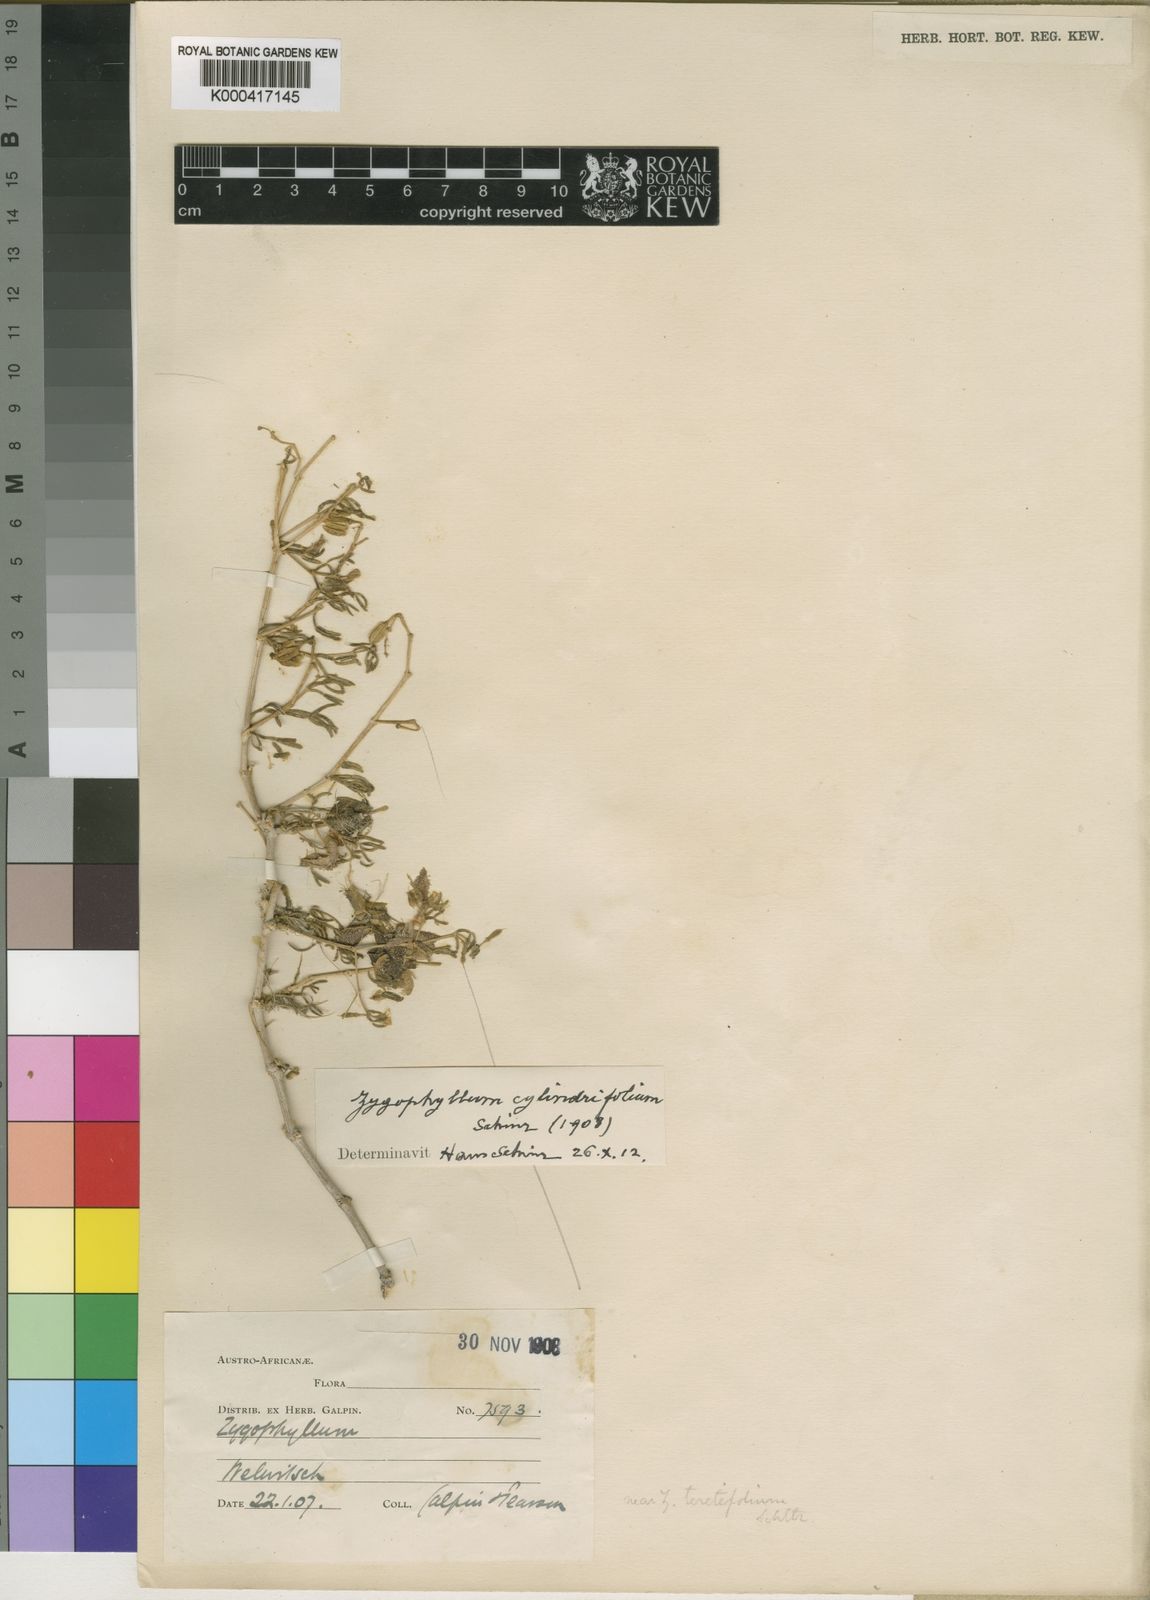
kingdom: Plantae
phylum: Tracheophyta
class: Magnoliopsida
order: Zygophyllales
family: Zygophyllaceae
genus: Tetraena
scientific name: Tetraena cylindrifolia
